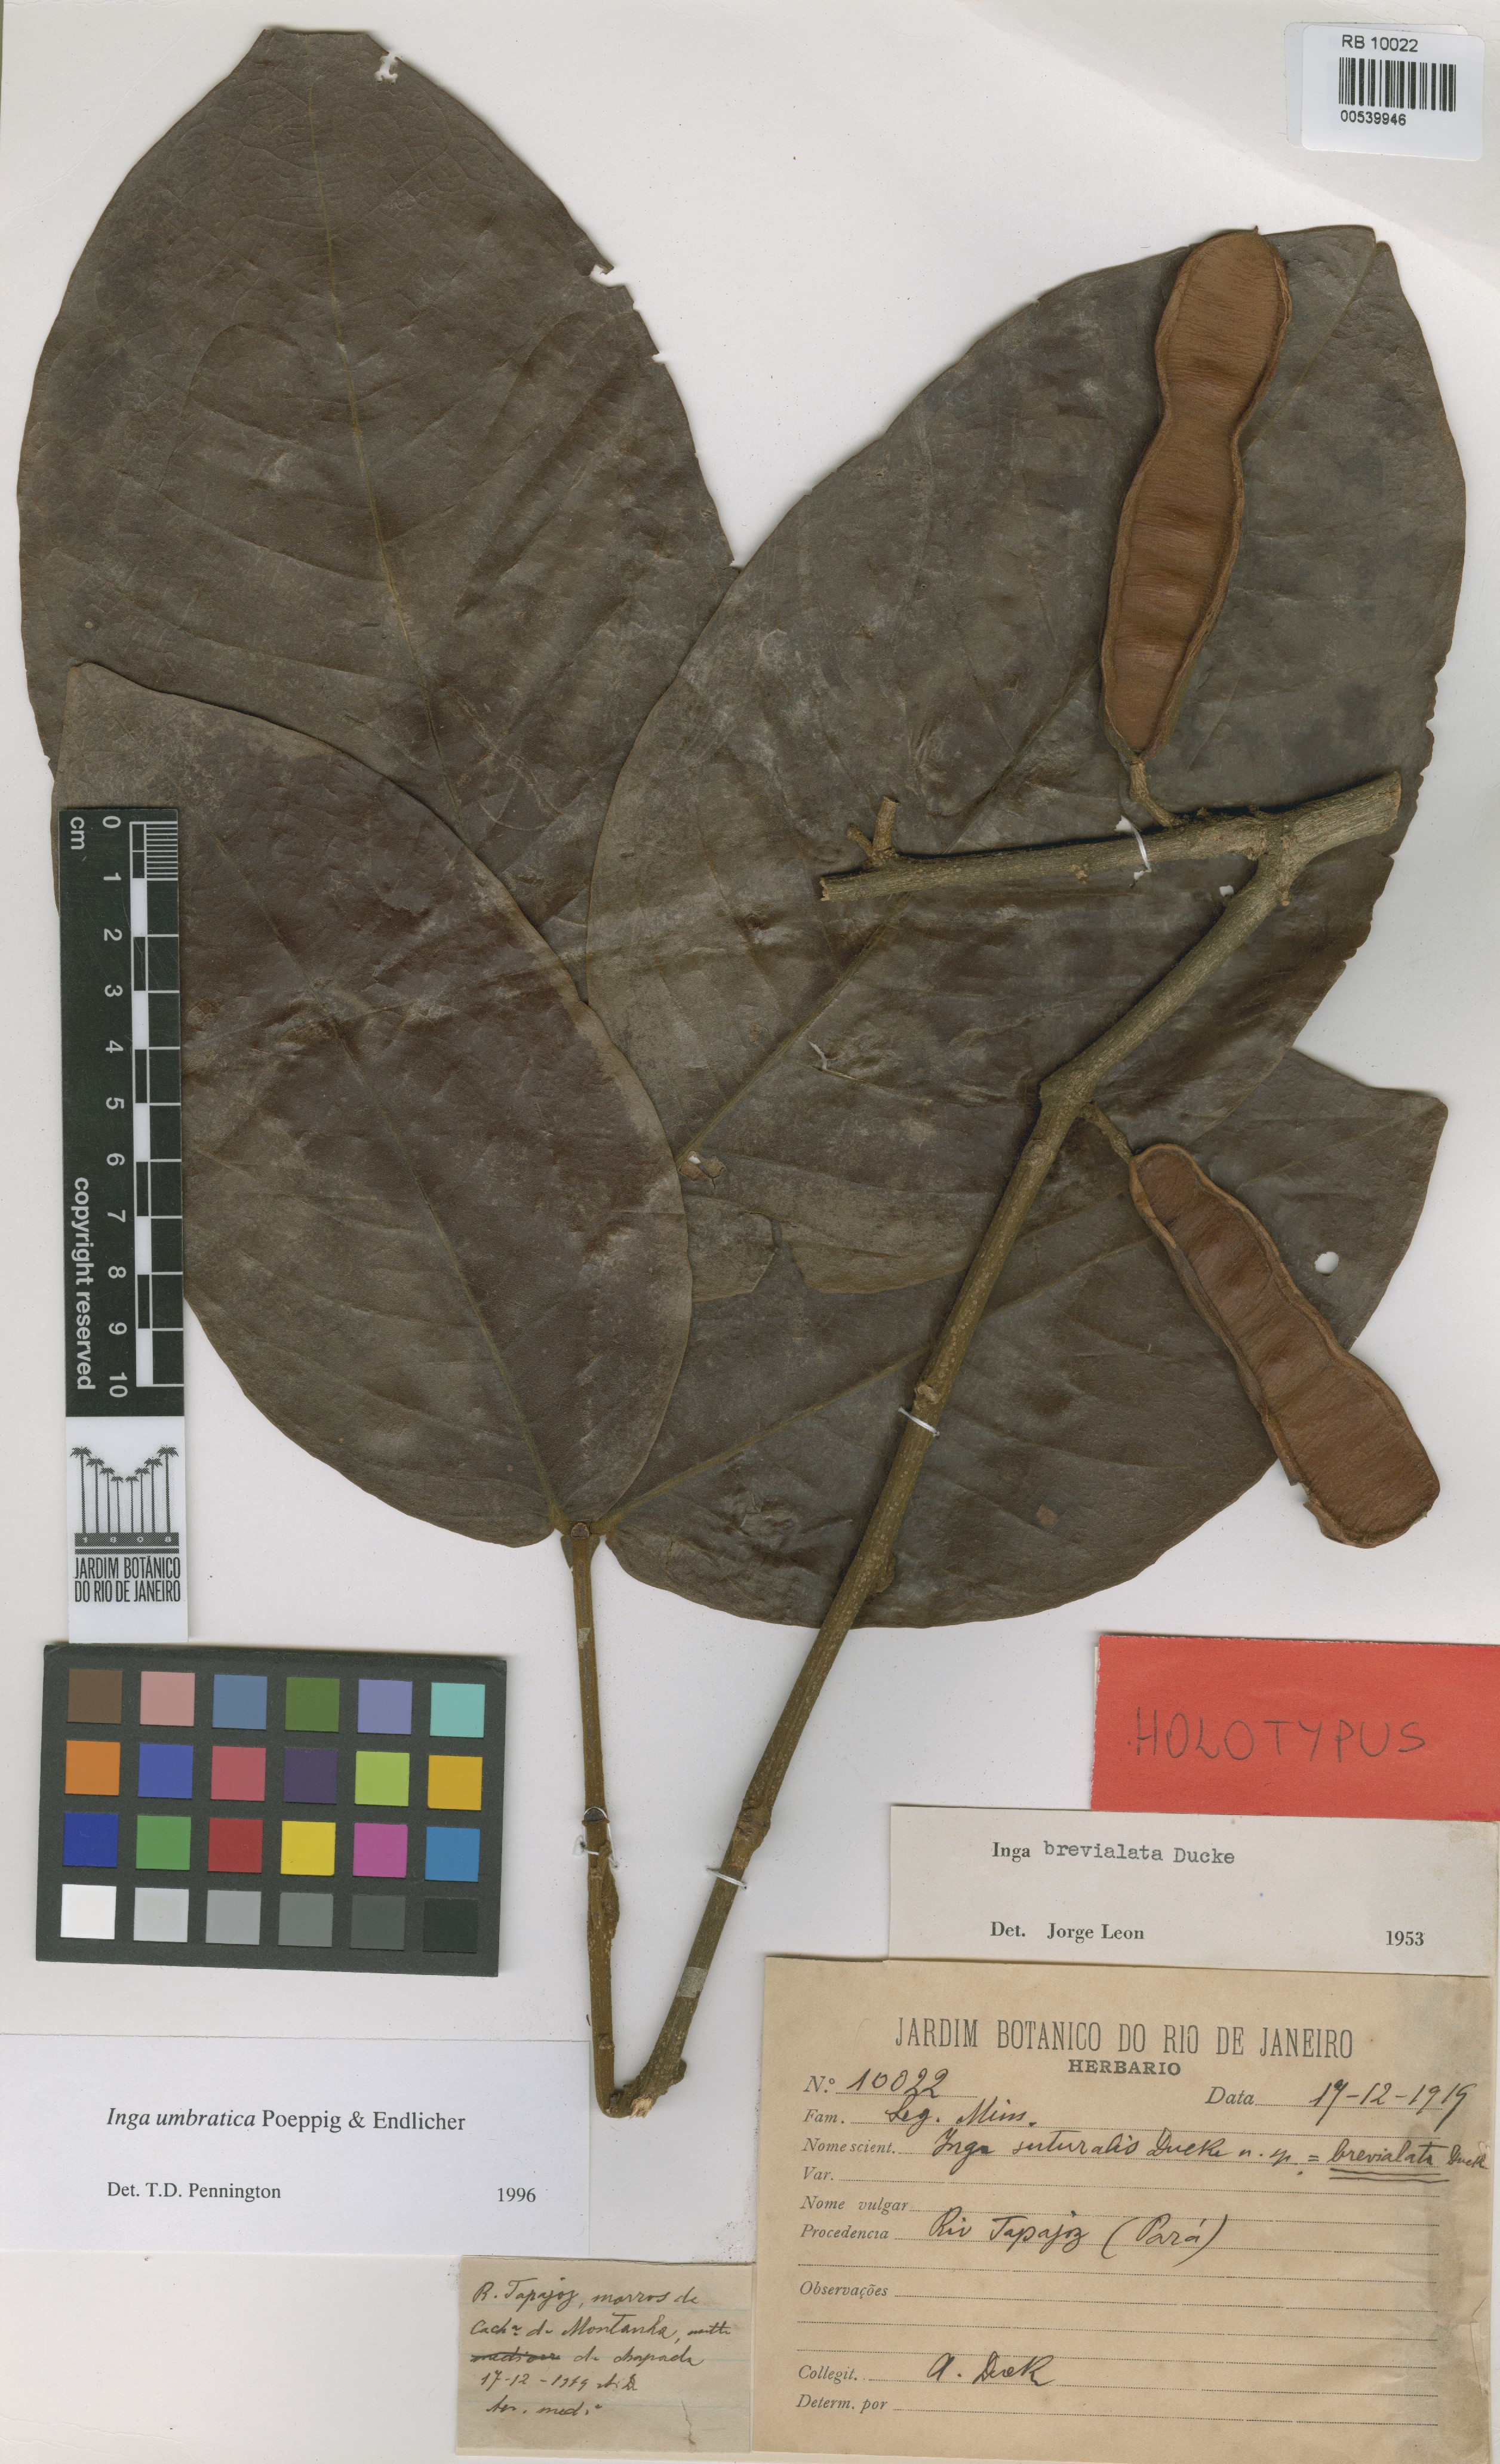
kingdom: Plantae
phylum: Tracheophyta
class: Magnoliopsida
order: Fabales
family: Fabaceae
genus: Inga
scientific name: Inga umbratica
